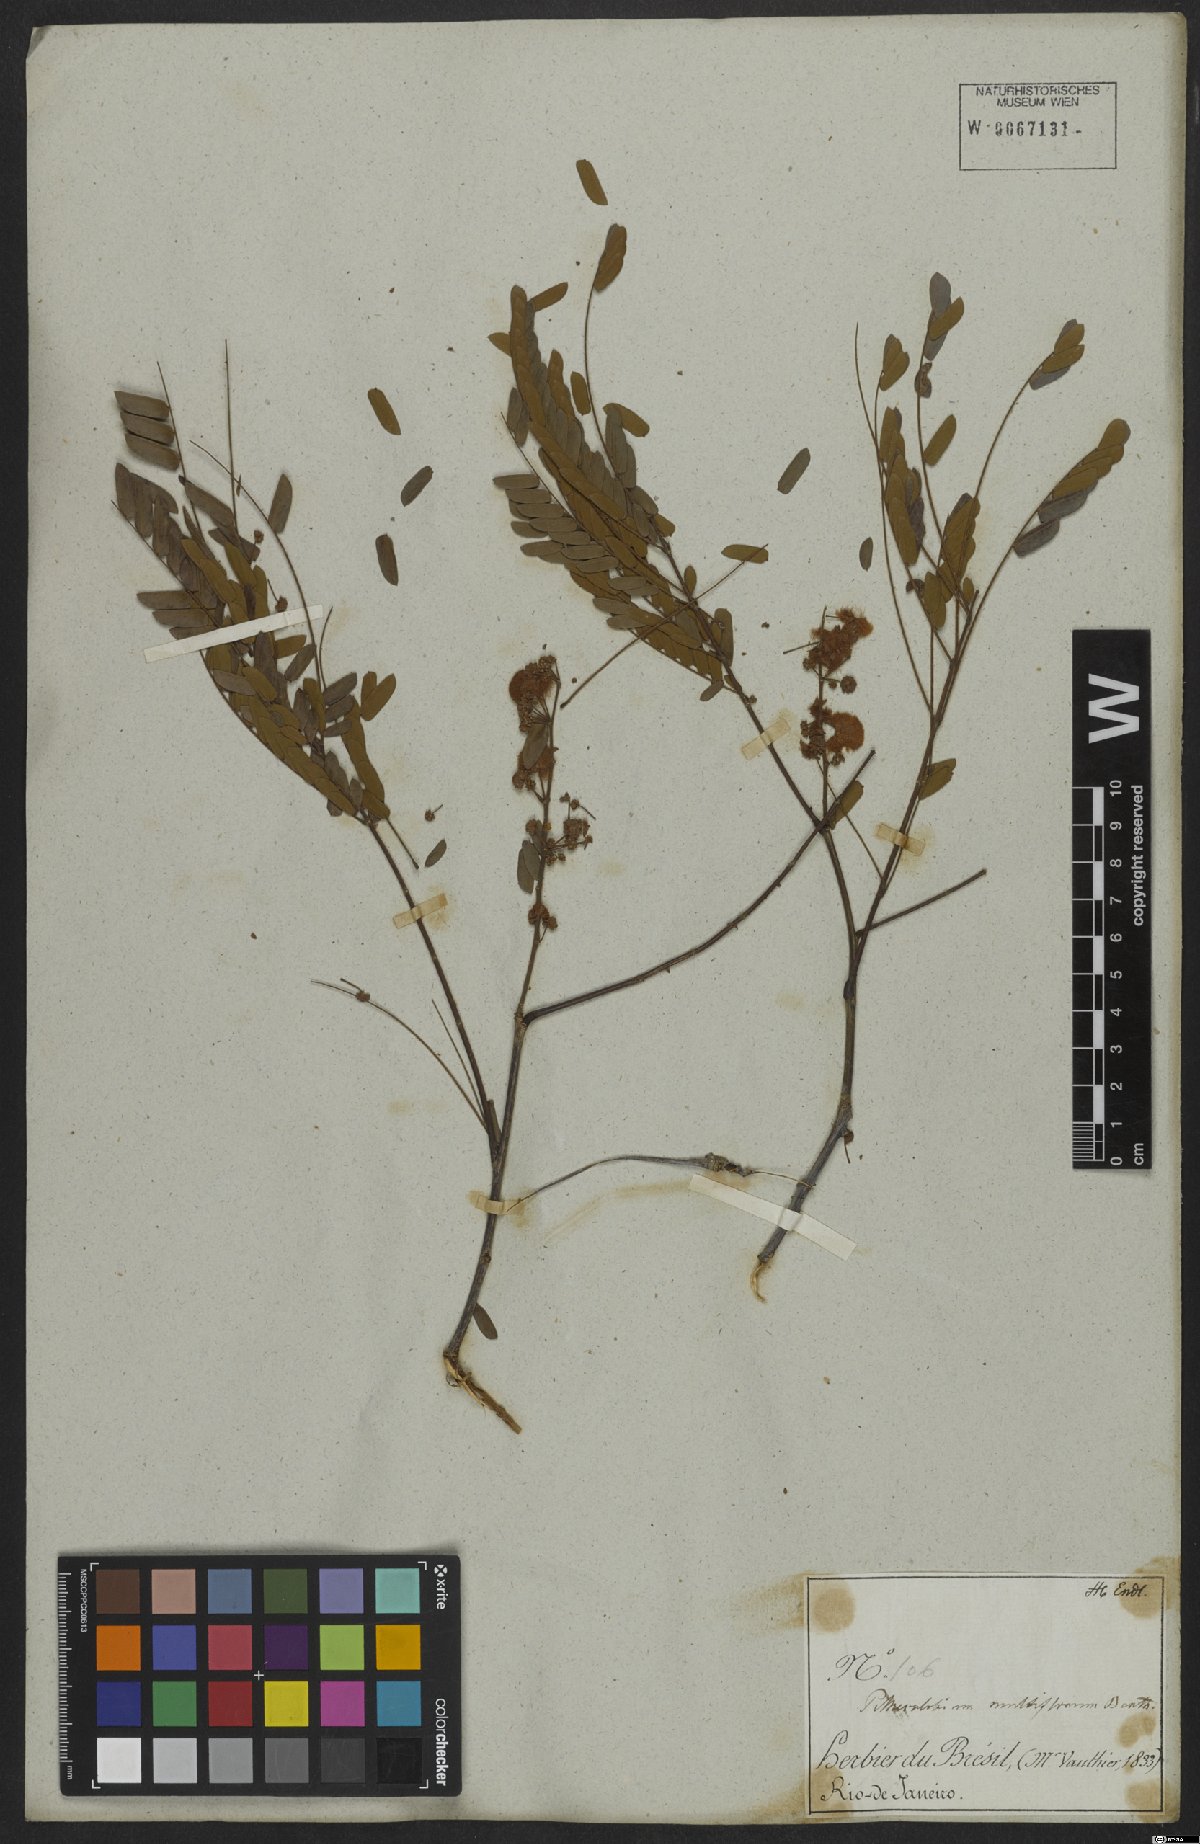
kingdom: Plantae
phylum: Tracheophyta
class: Magnoliopsida
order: Fabales
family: Fabaceae
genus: Albizia
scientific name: Albizia multiflora
